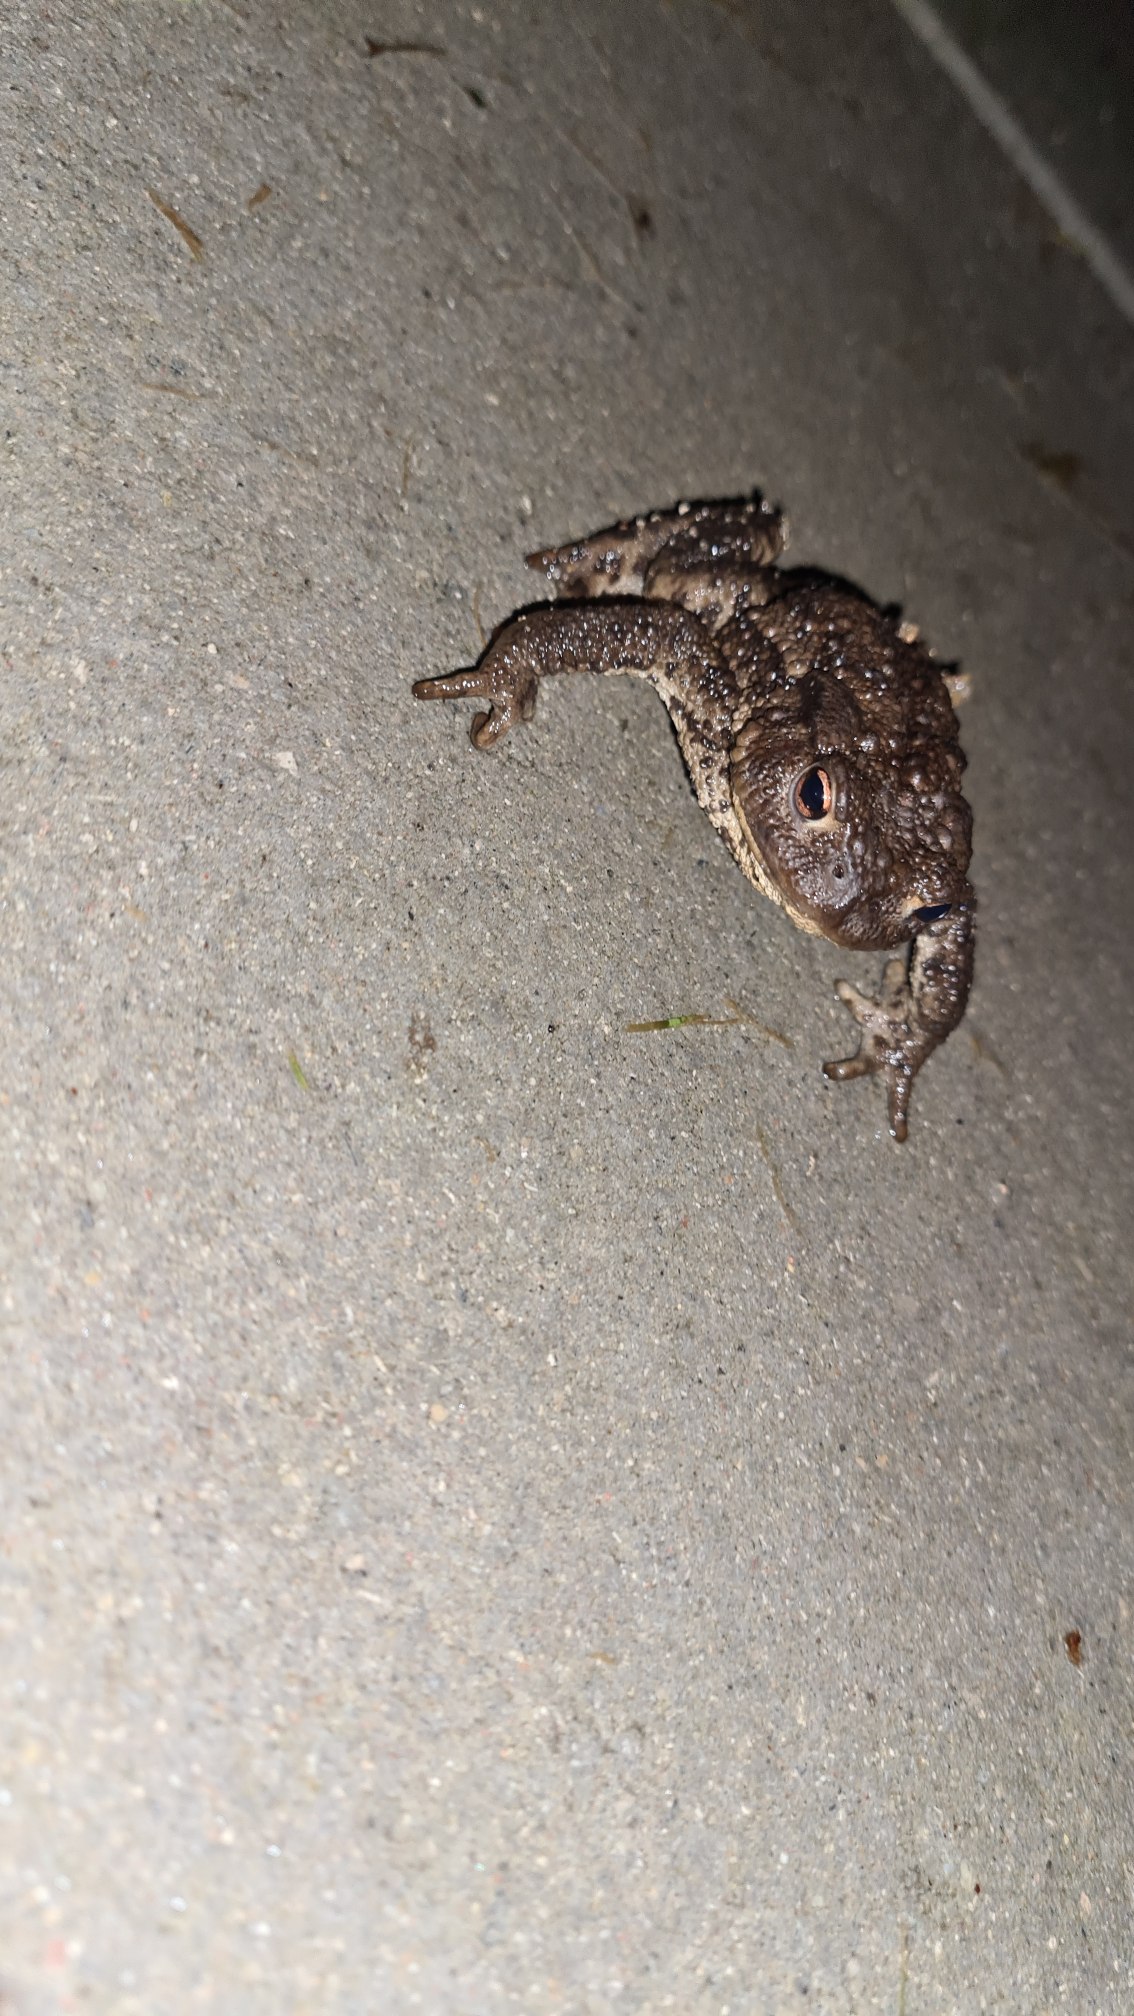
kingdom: Animalia
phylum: Chordata
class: Amphibia
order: Anura
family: Bufonidae
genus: Bufo
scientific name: Bufo bufo
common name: Skrubtudse
